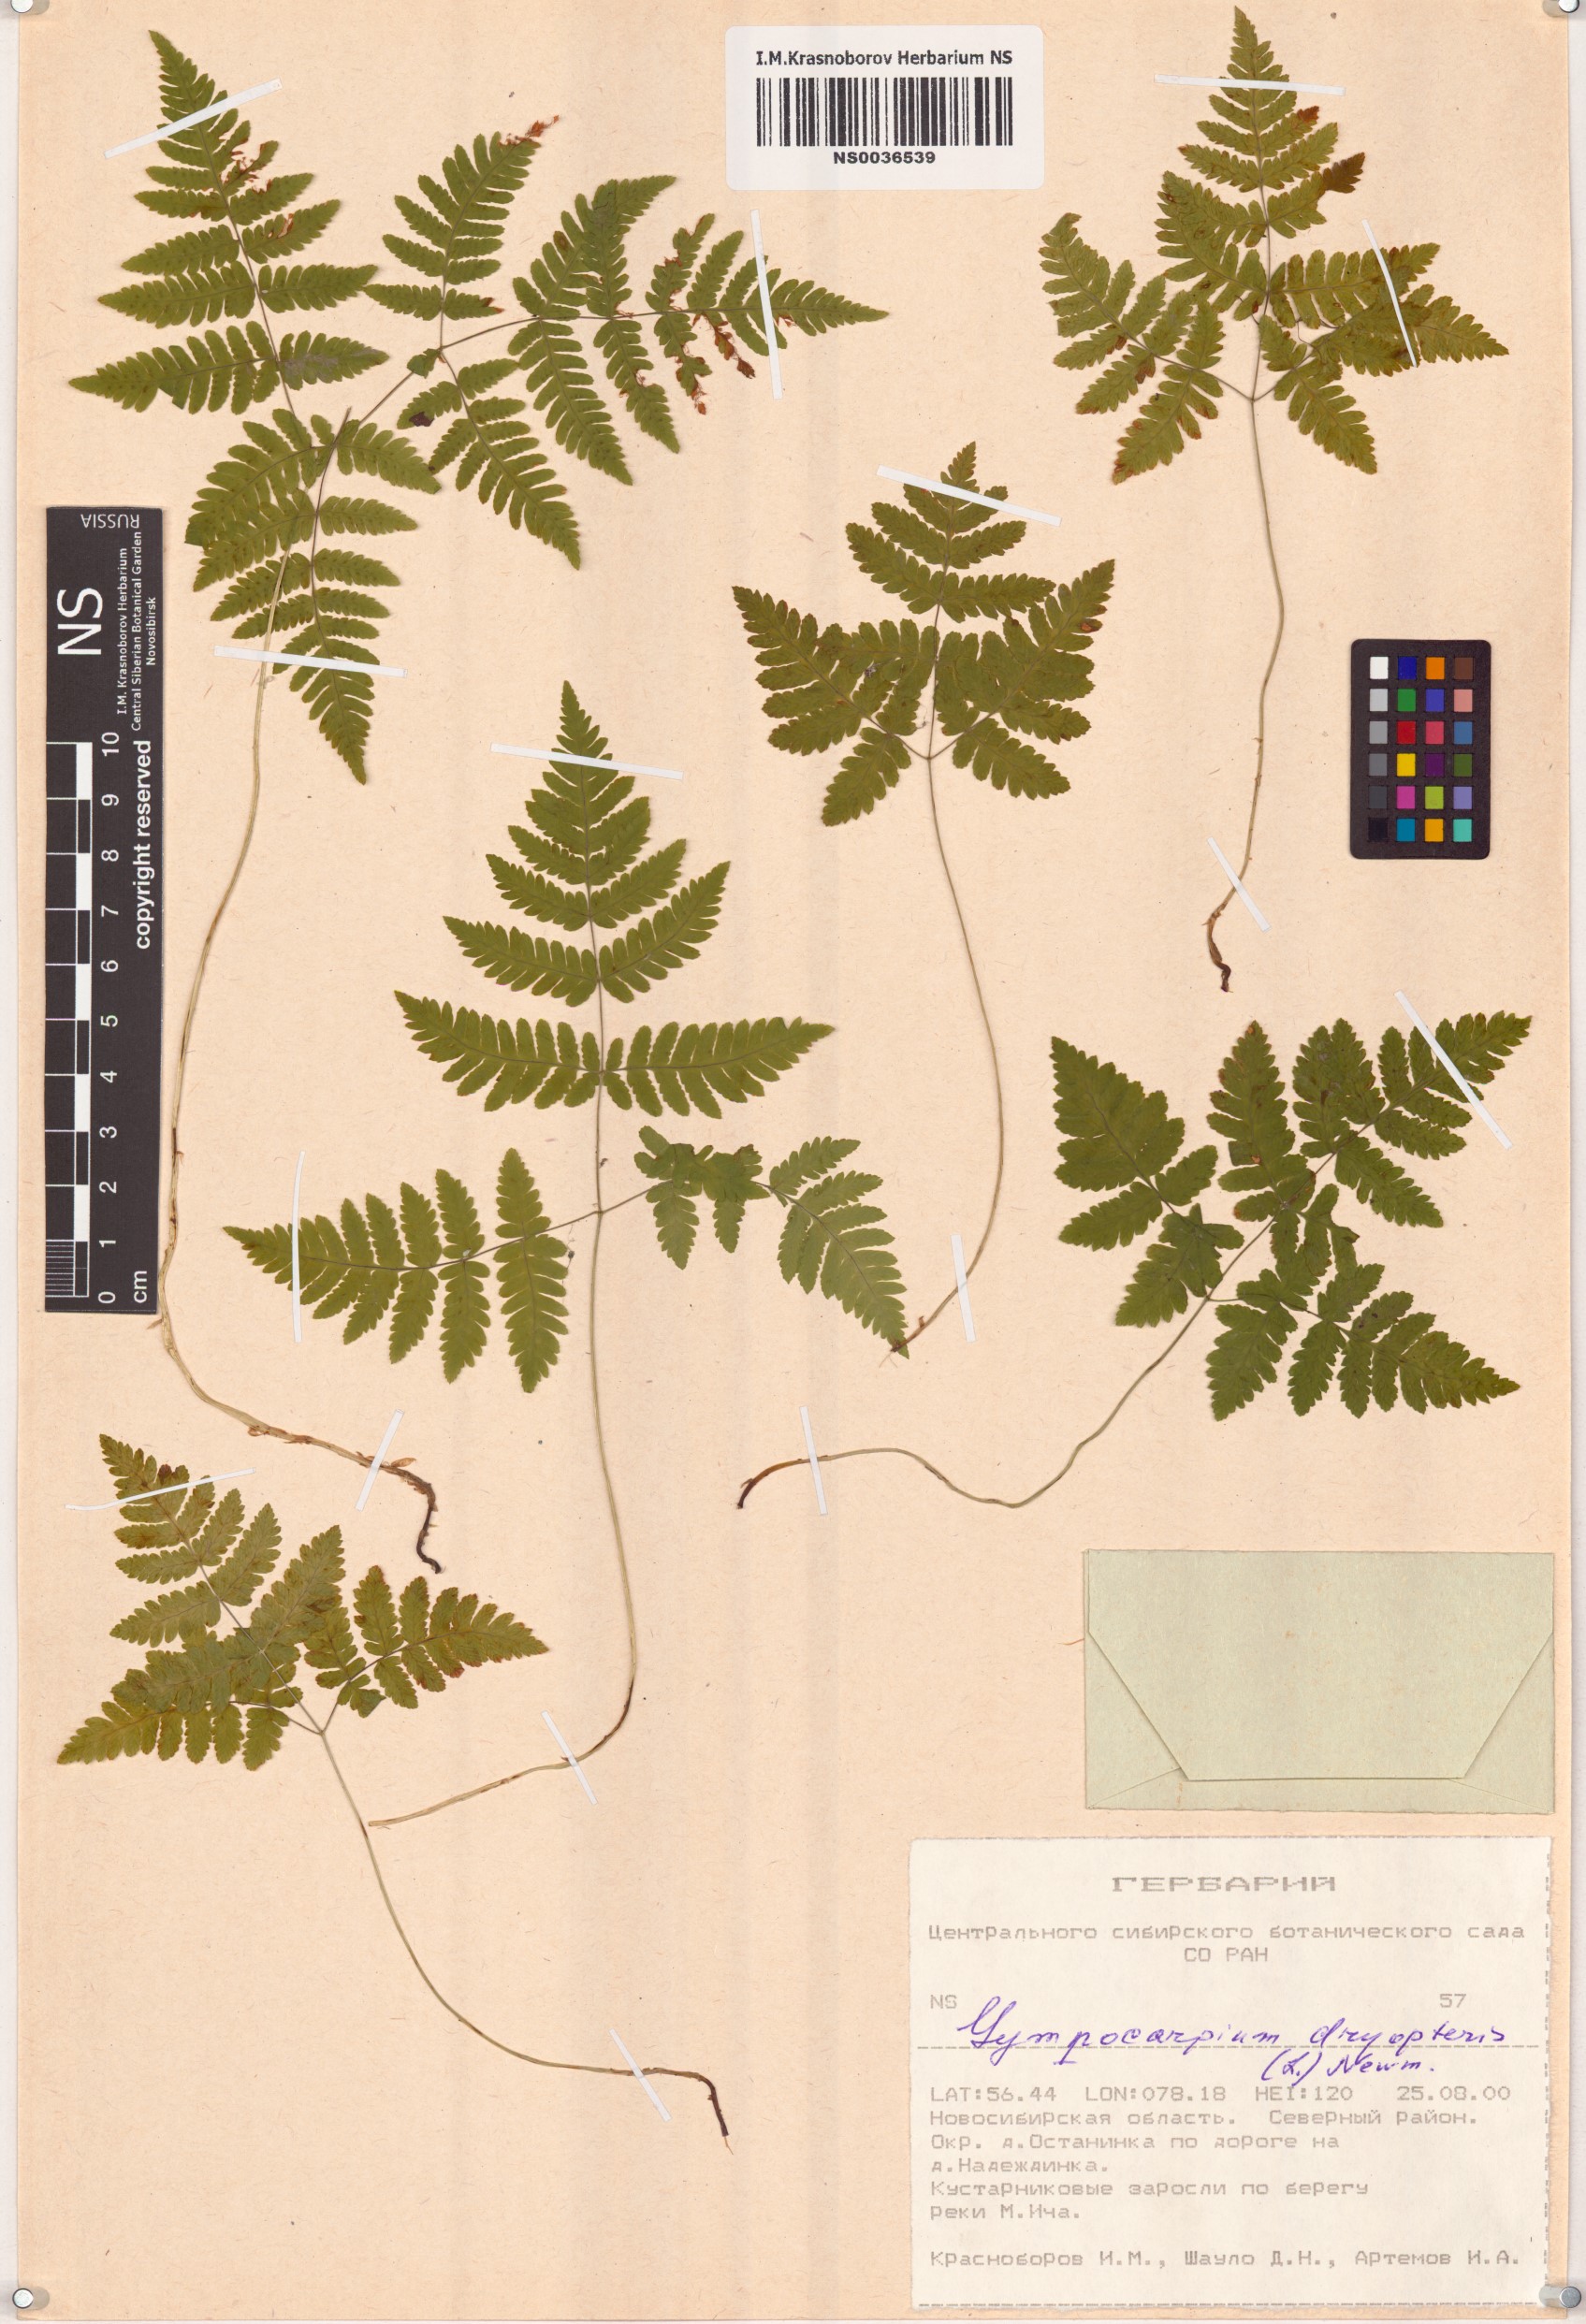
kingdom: Plantae
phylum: Tracheophyta
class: Polypodiopsida
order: Polypodiales
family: Cystopteridaceae
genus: Gymnocarpium
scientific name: Gymnocarpium dryopteris
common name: Oak fern
